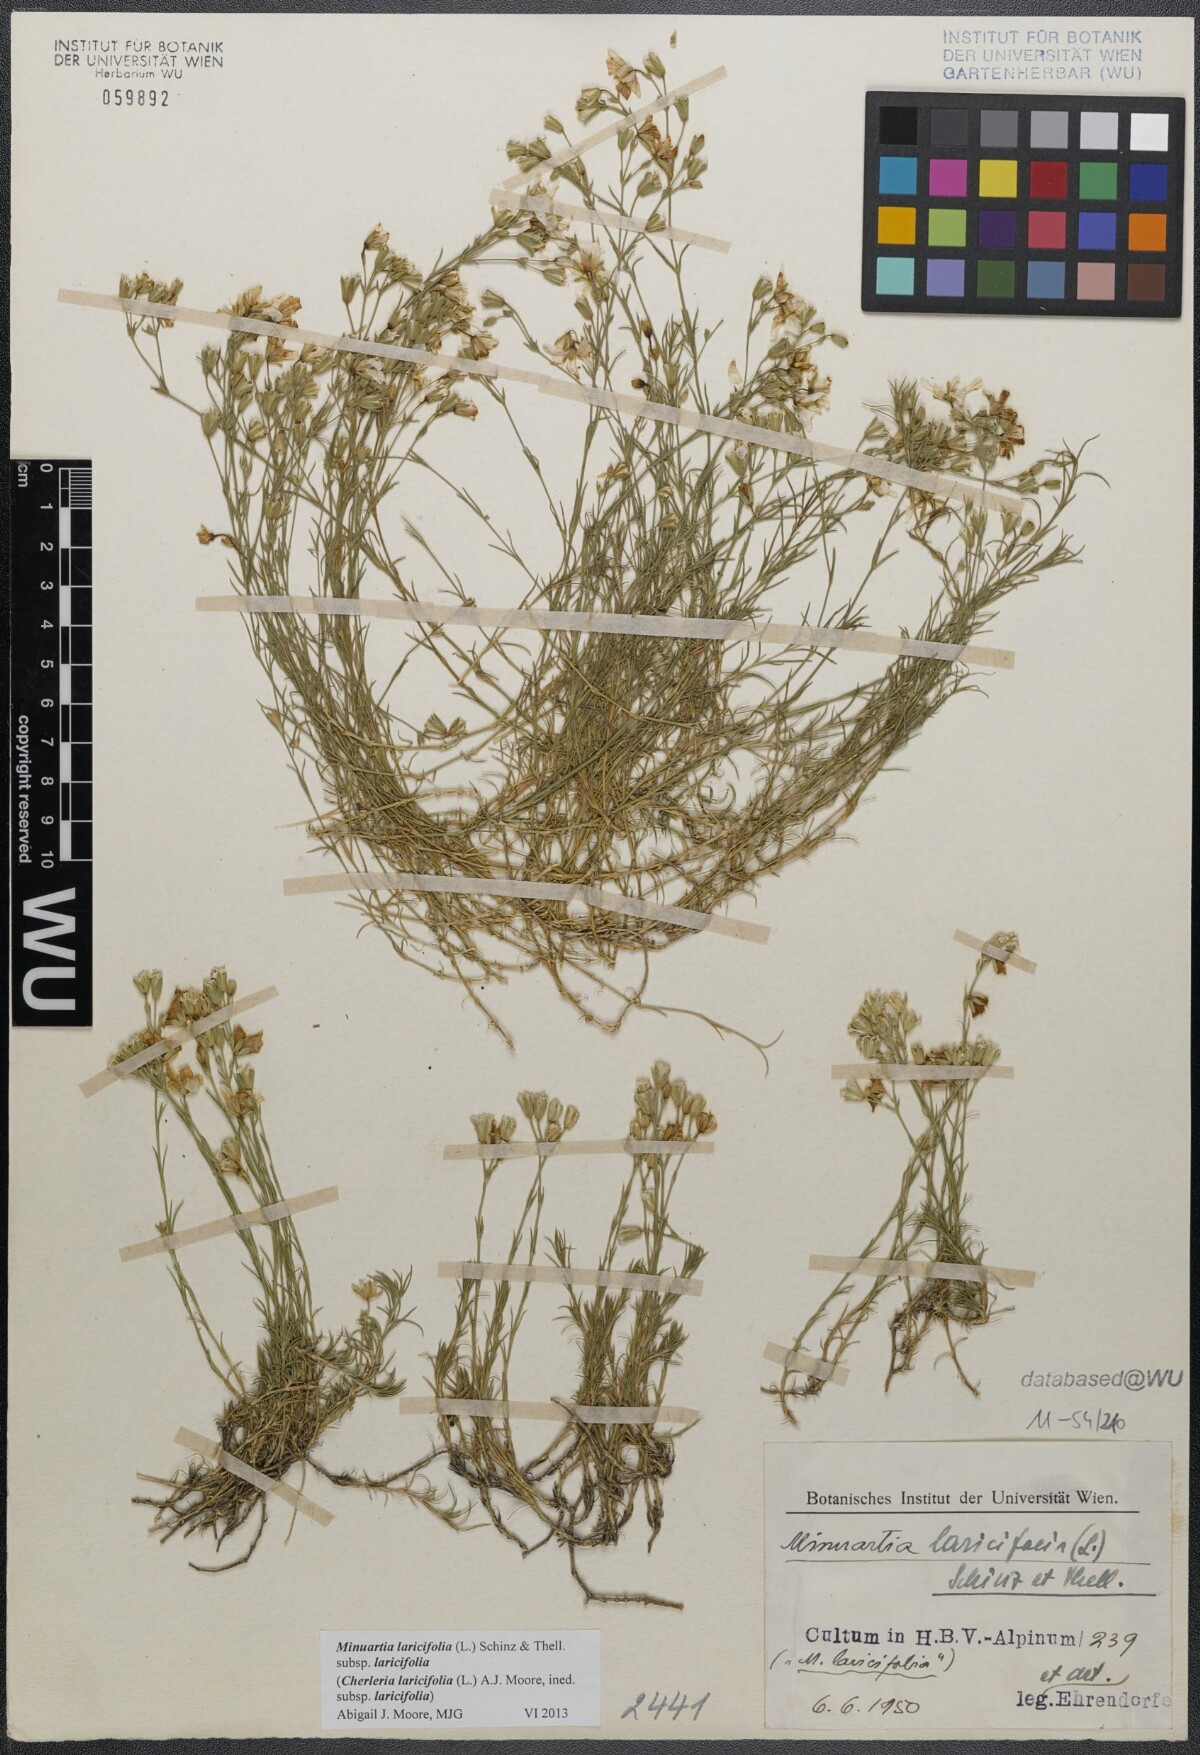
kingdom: Plantae
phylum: Tracheophyta
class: Magnoliopsida
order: Caryophyllales
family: Caryophyllaceae
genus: Cherleria
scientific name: Cherleria laricifolia
